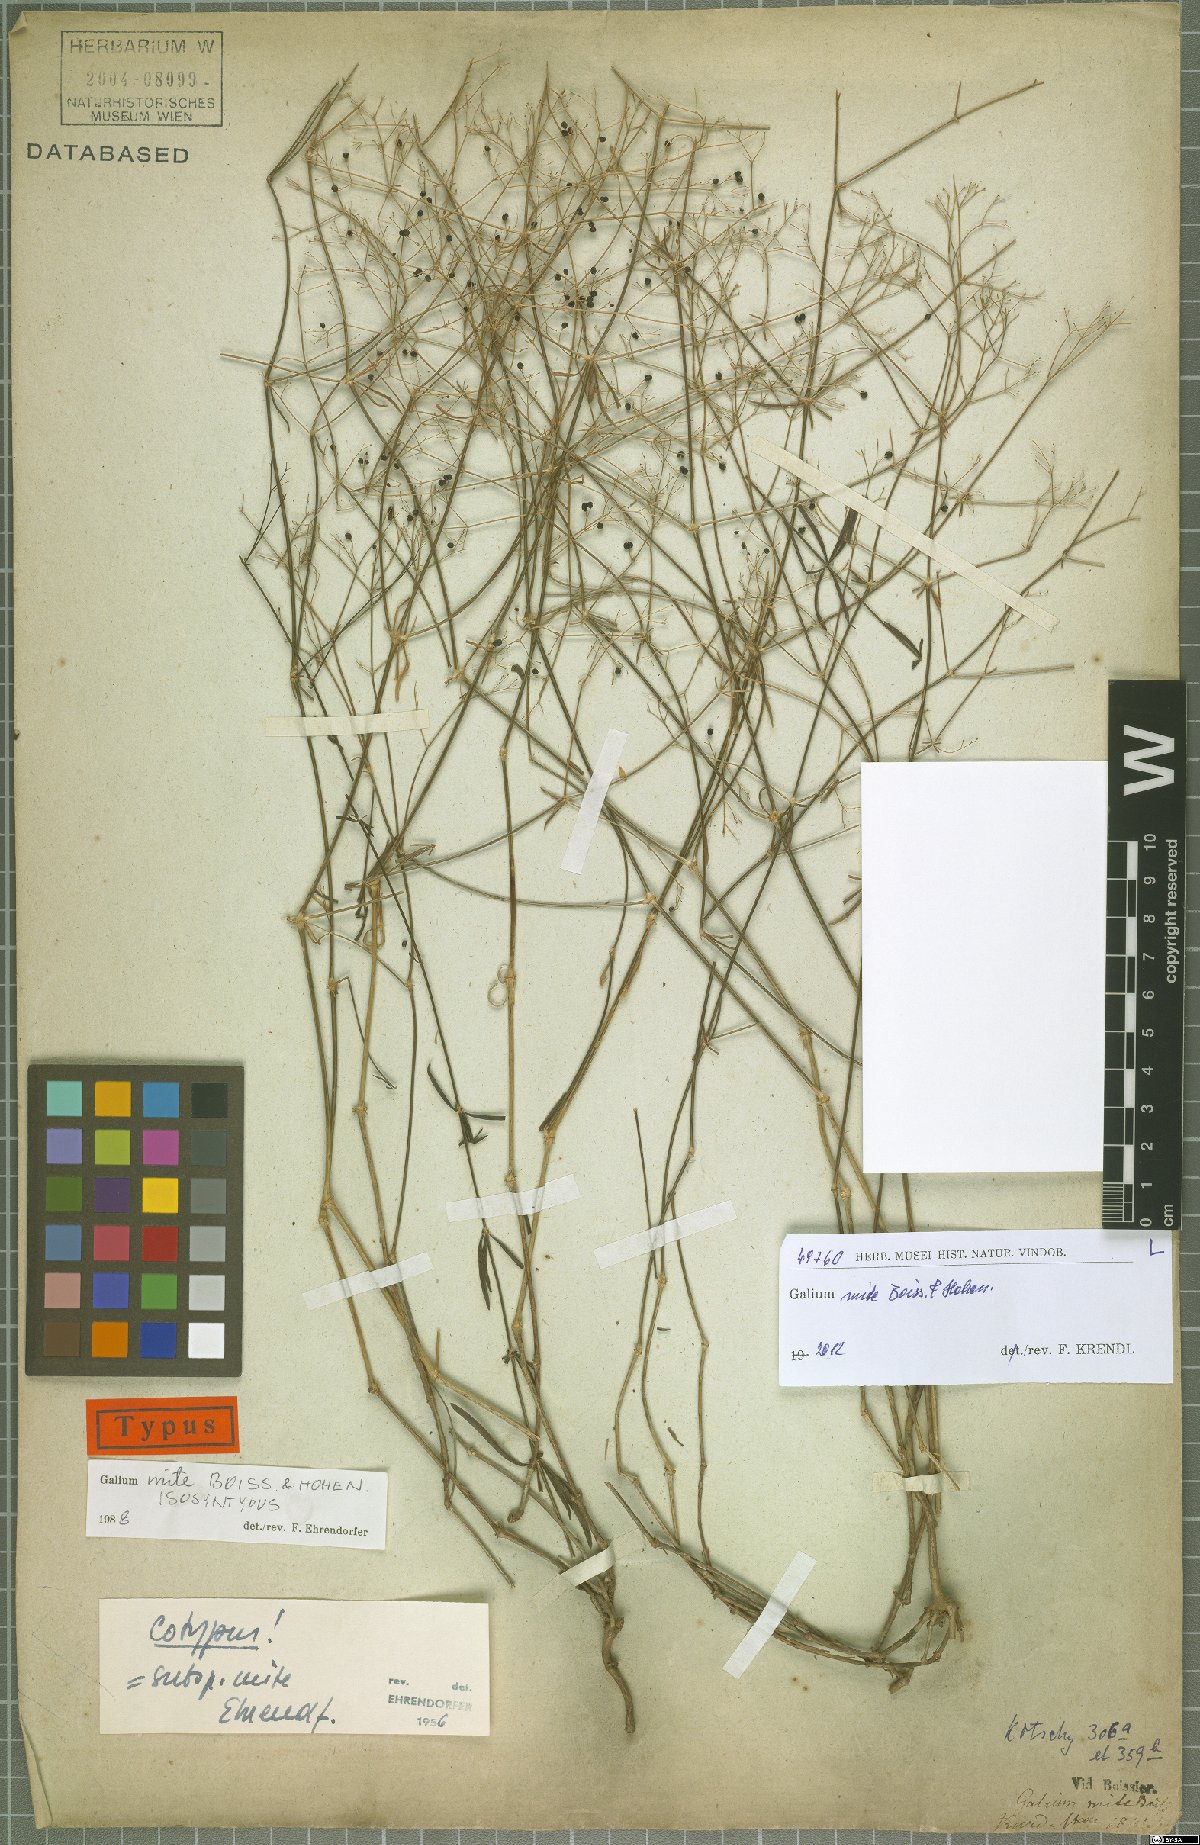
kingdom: Plantae
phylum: Tracheophyta
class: Magnoliopsida
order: Gentianales
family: Rubiaceae
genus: Galium
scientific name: Galium mite
